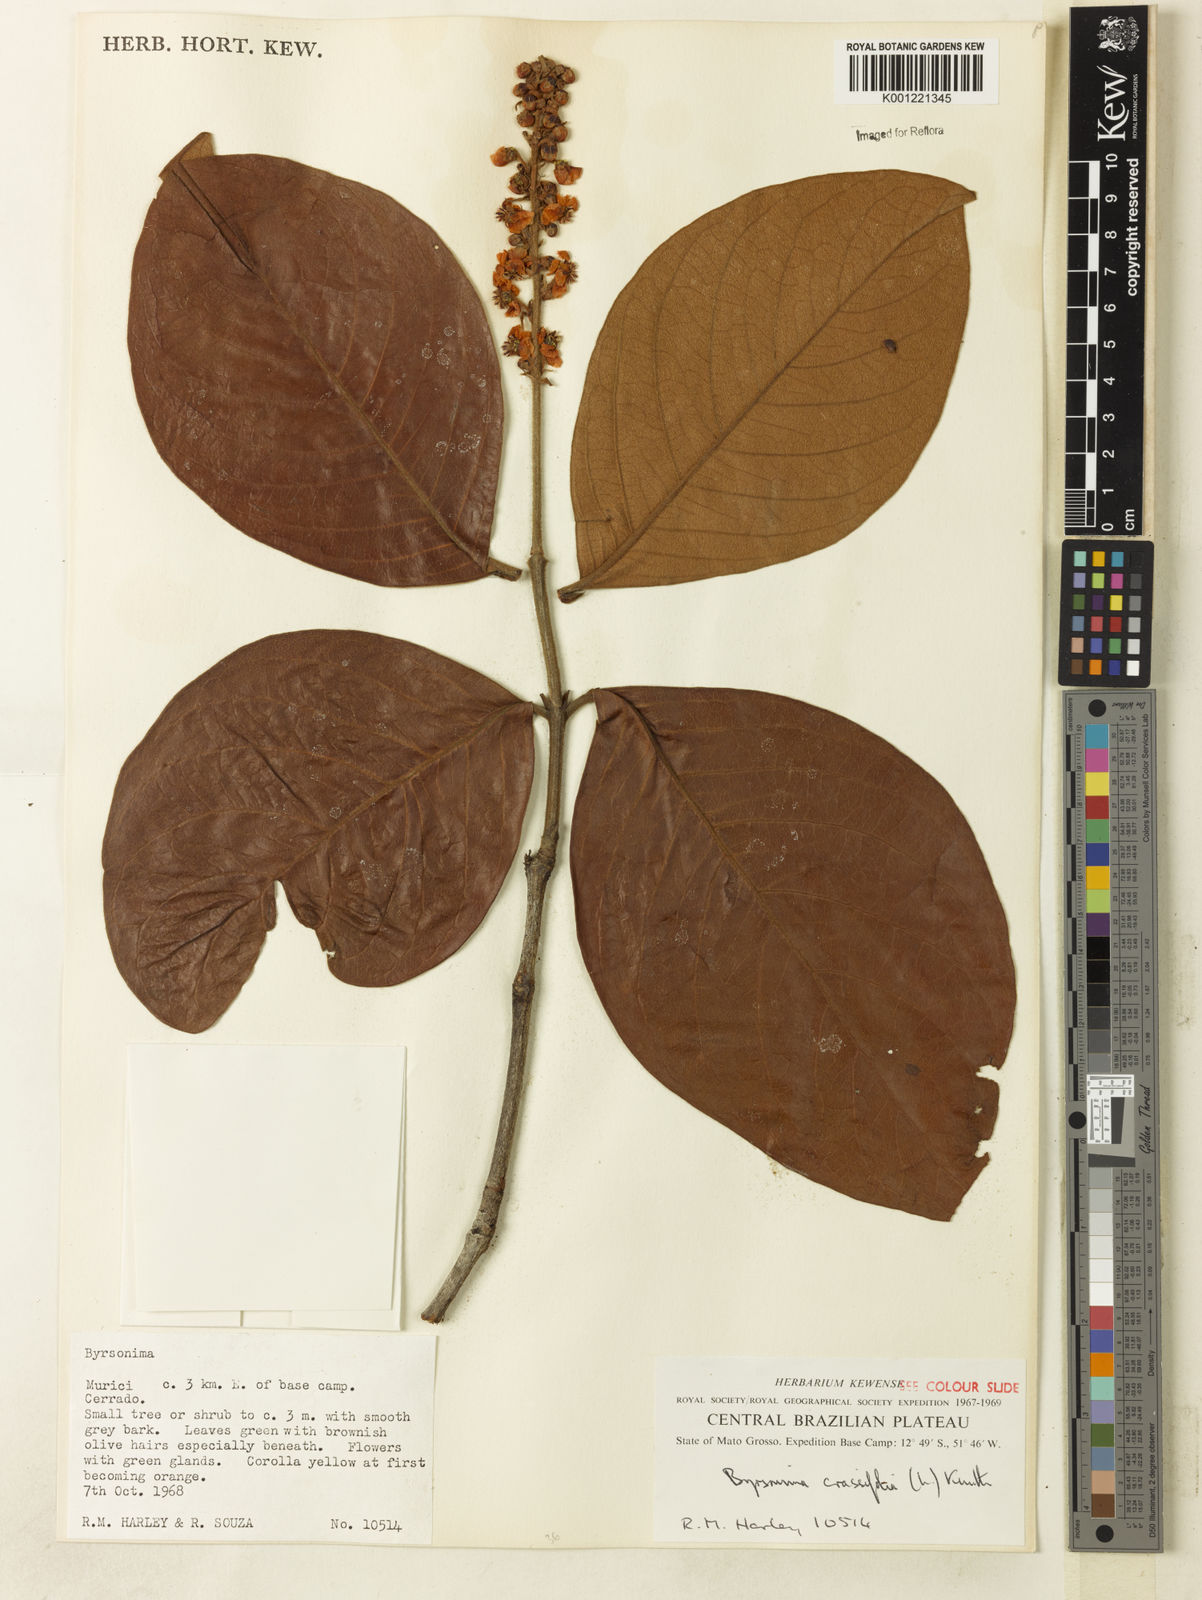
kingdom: Plantae
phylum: Tracheophyta
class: Magnoliopsida
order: Malpighiales
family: Malpighiaceae
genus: Byrsonima
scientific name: Byrsonima crassifolia
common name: Golden spoon
